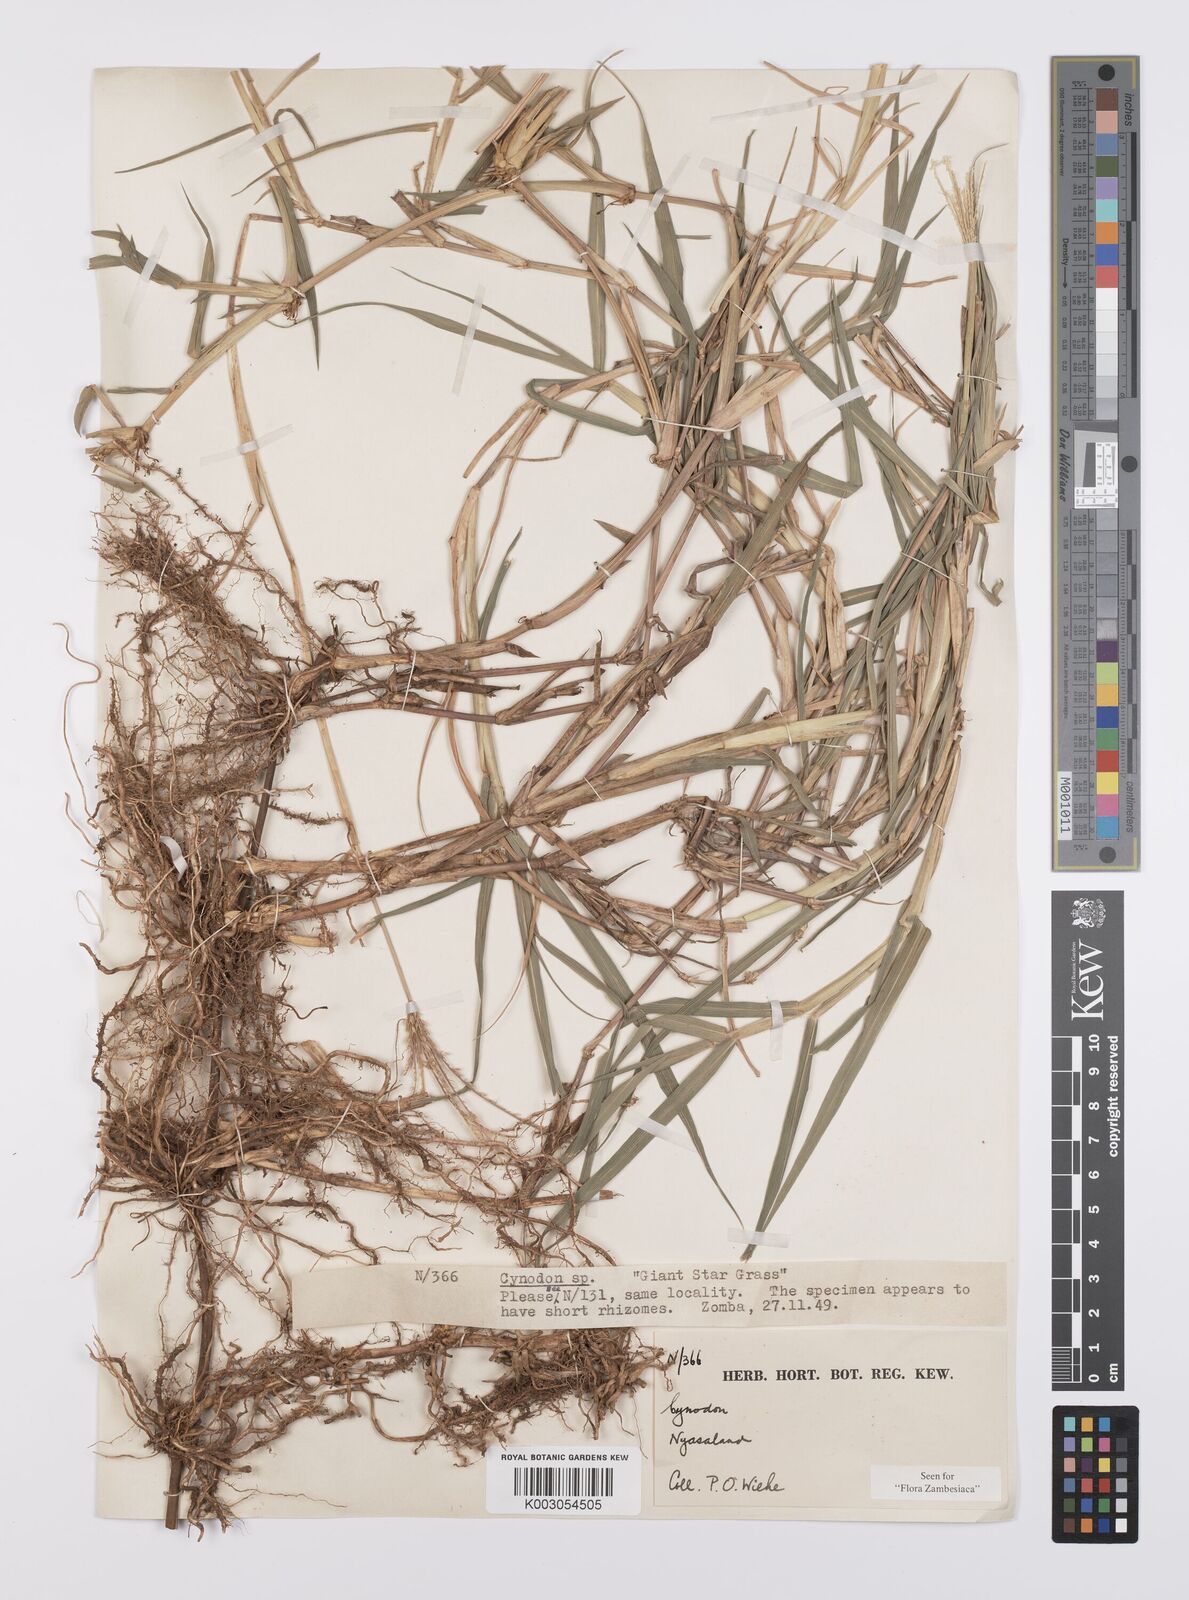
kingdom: Plantae
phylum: Tracheophyta
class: Liliopsida
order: Poales
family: Poaceae
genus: Cynodon
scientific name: Cynodon aethiopicus
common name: Ethiopian dogstooth grass
